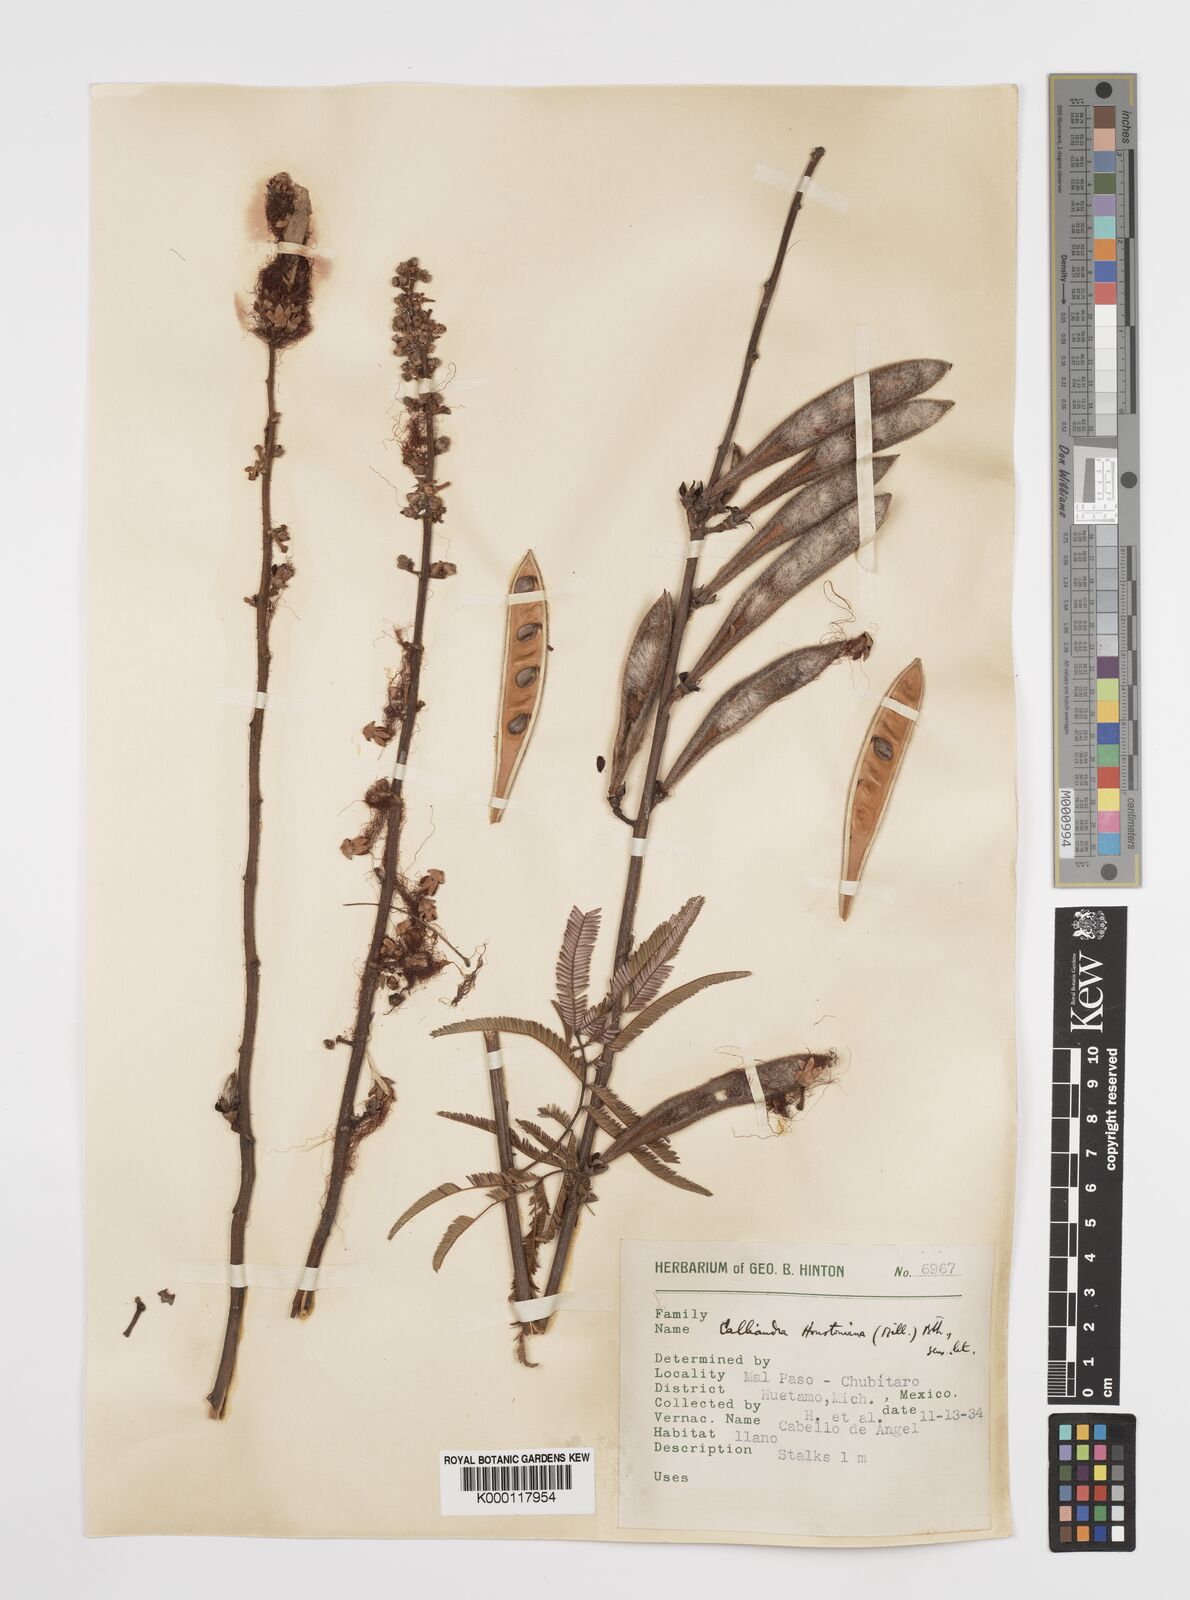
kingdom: Plantae
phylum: Tracheophyta
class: Magnoliopsida
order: Fabales
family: Fabaceae
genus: Calliandra
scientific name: Calliandra houstoniana
